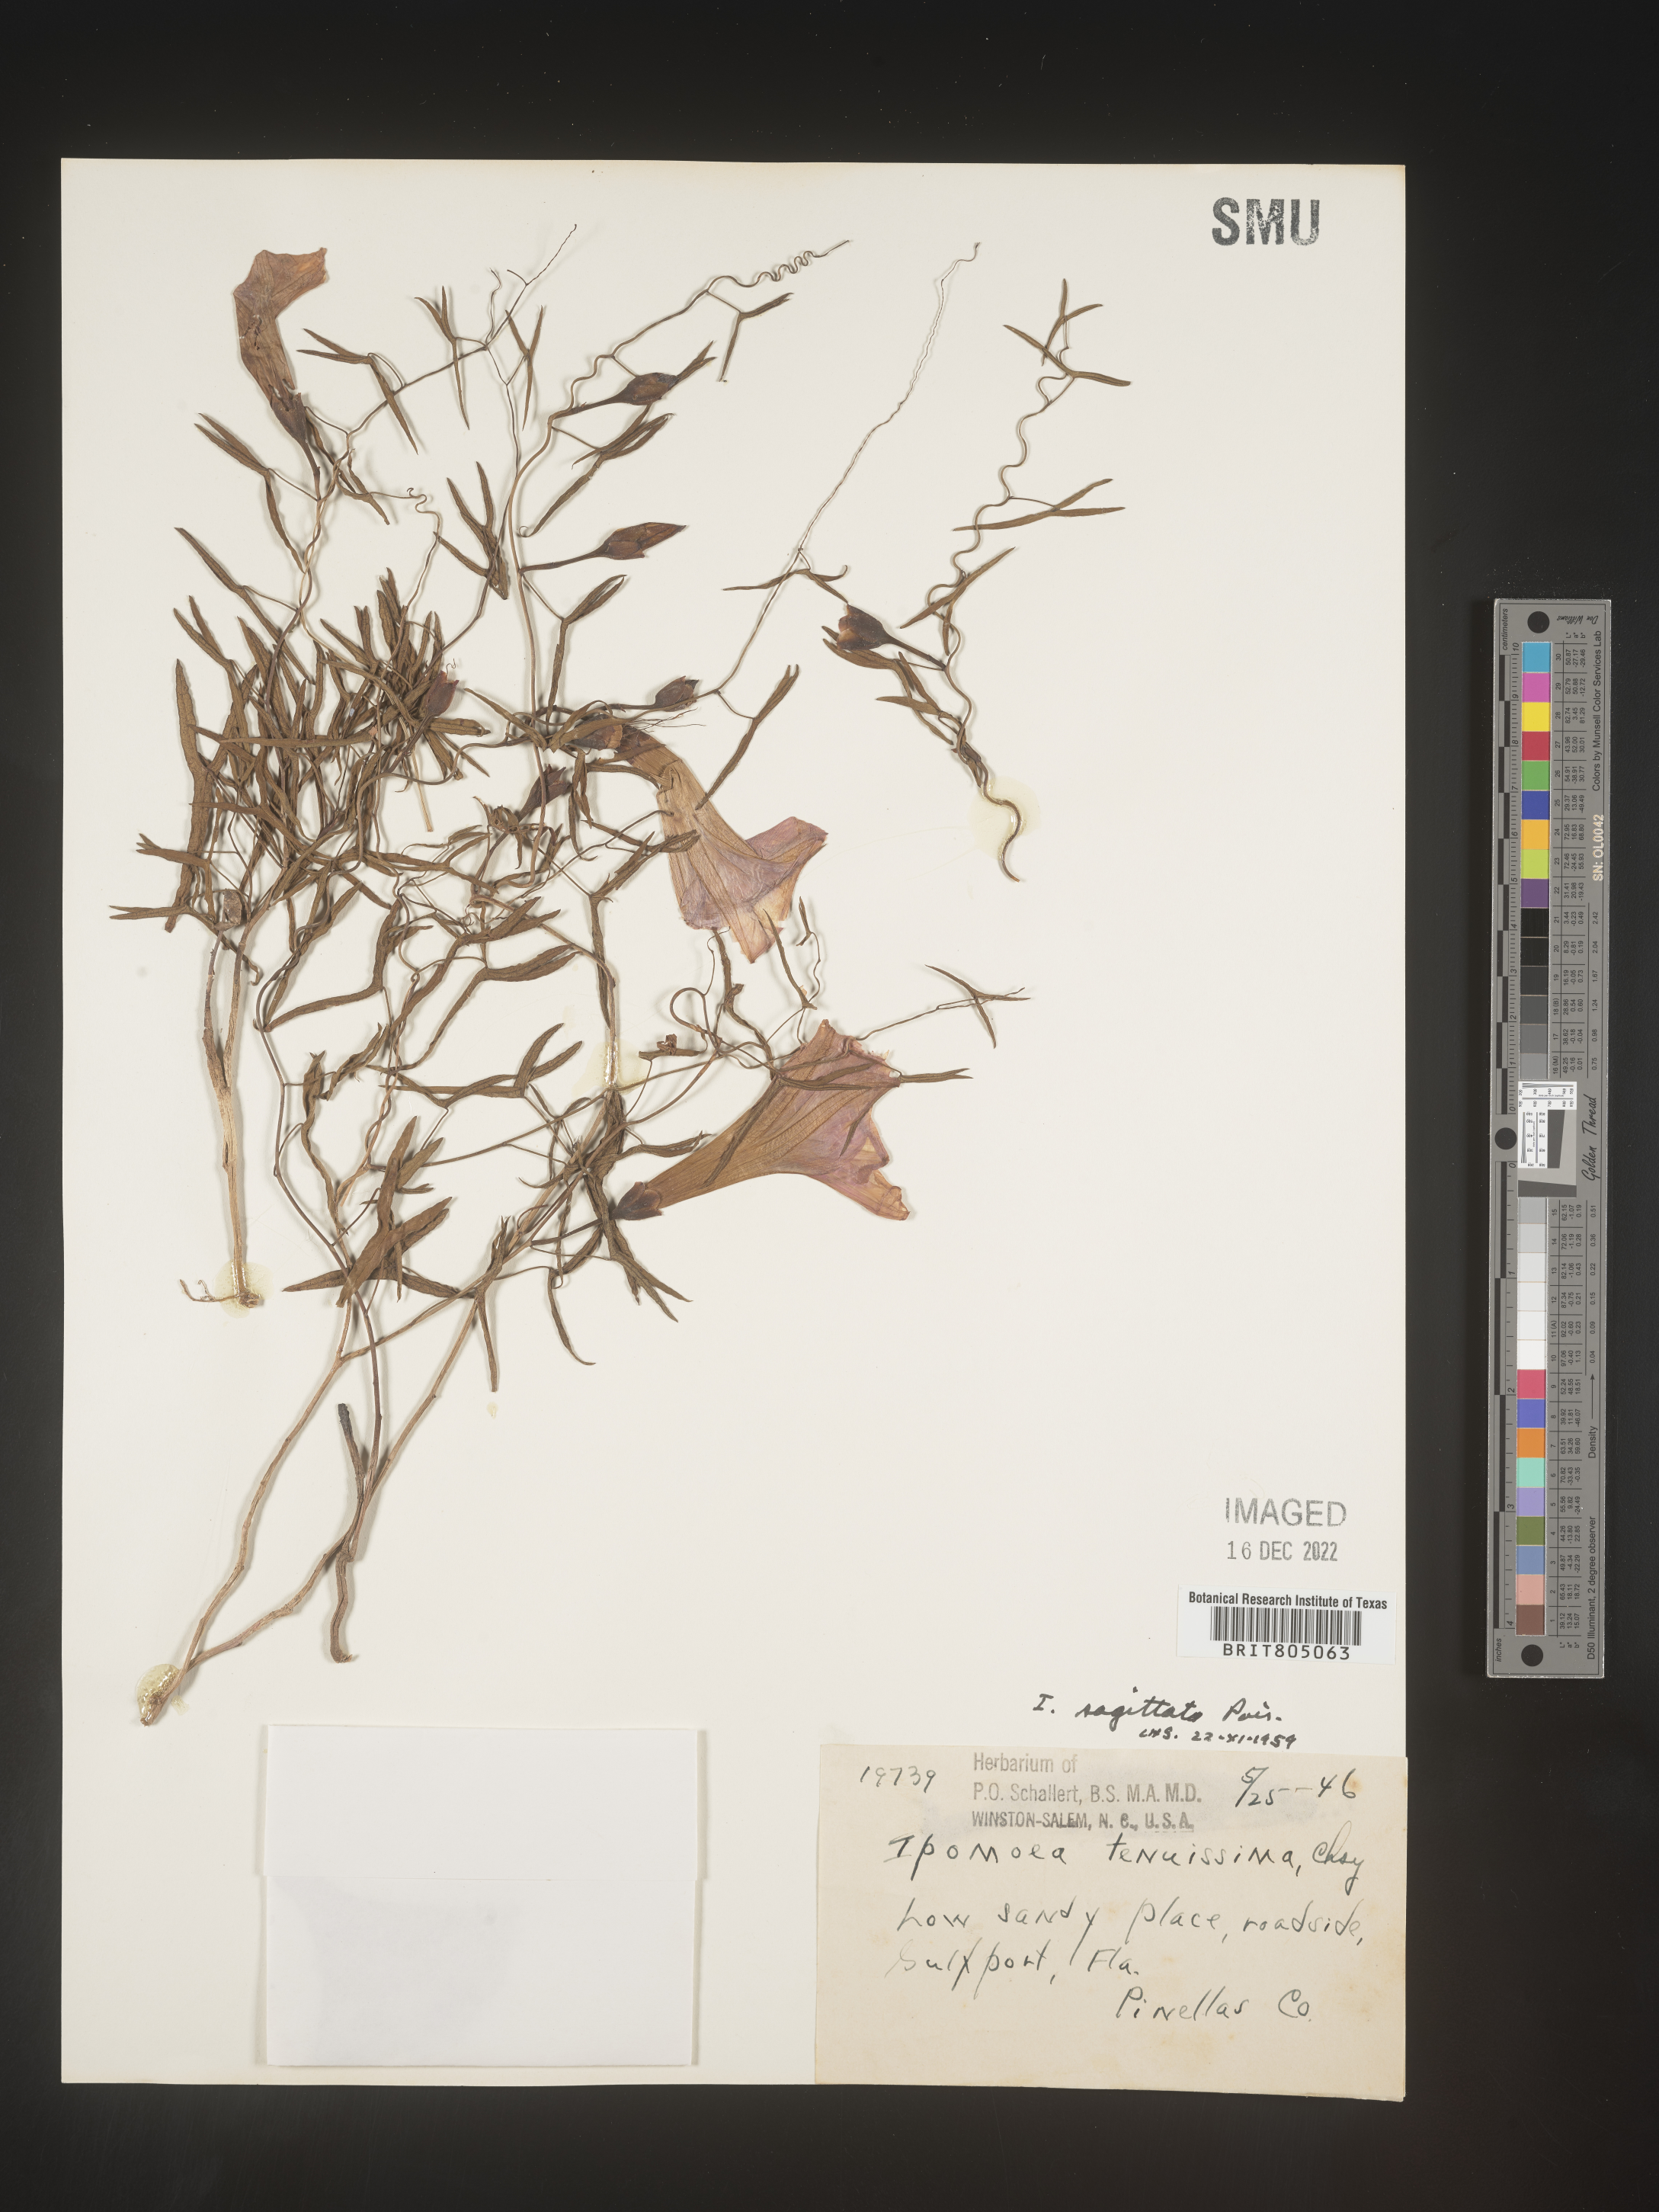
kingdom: Plantae
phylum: Tracheophyta
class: Magnoliopsida
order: Solanales
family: Convolvulaceae
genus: Ipomoea
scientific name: Ipomoea sinensis
